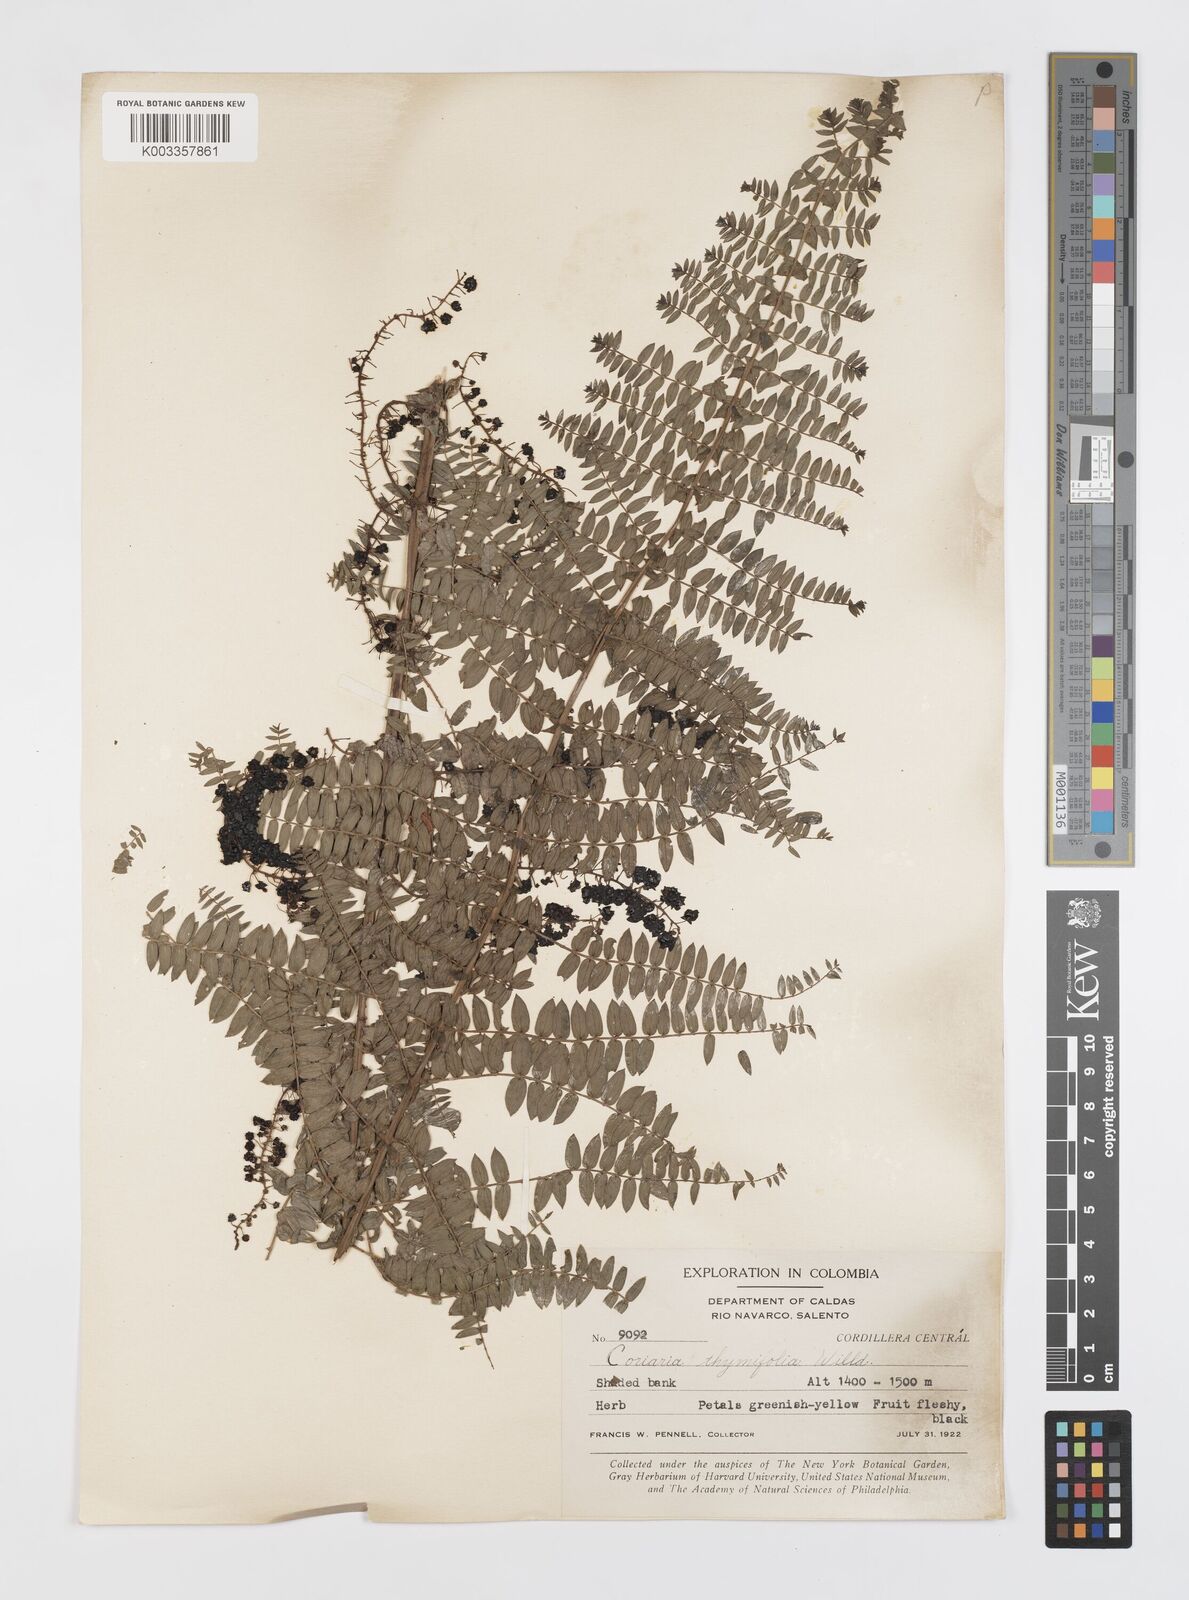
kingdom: Plantae
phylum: Tracheophyta
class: Magnoliopsida
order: Cucurbitales
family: Coriariaceae
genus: Coriaria
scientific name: Coriaria microphylla
